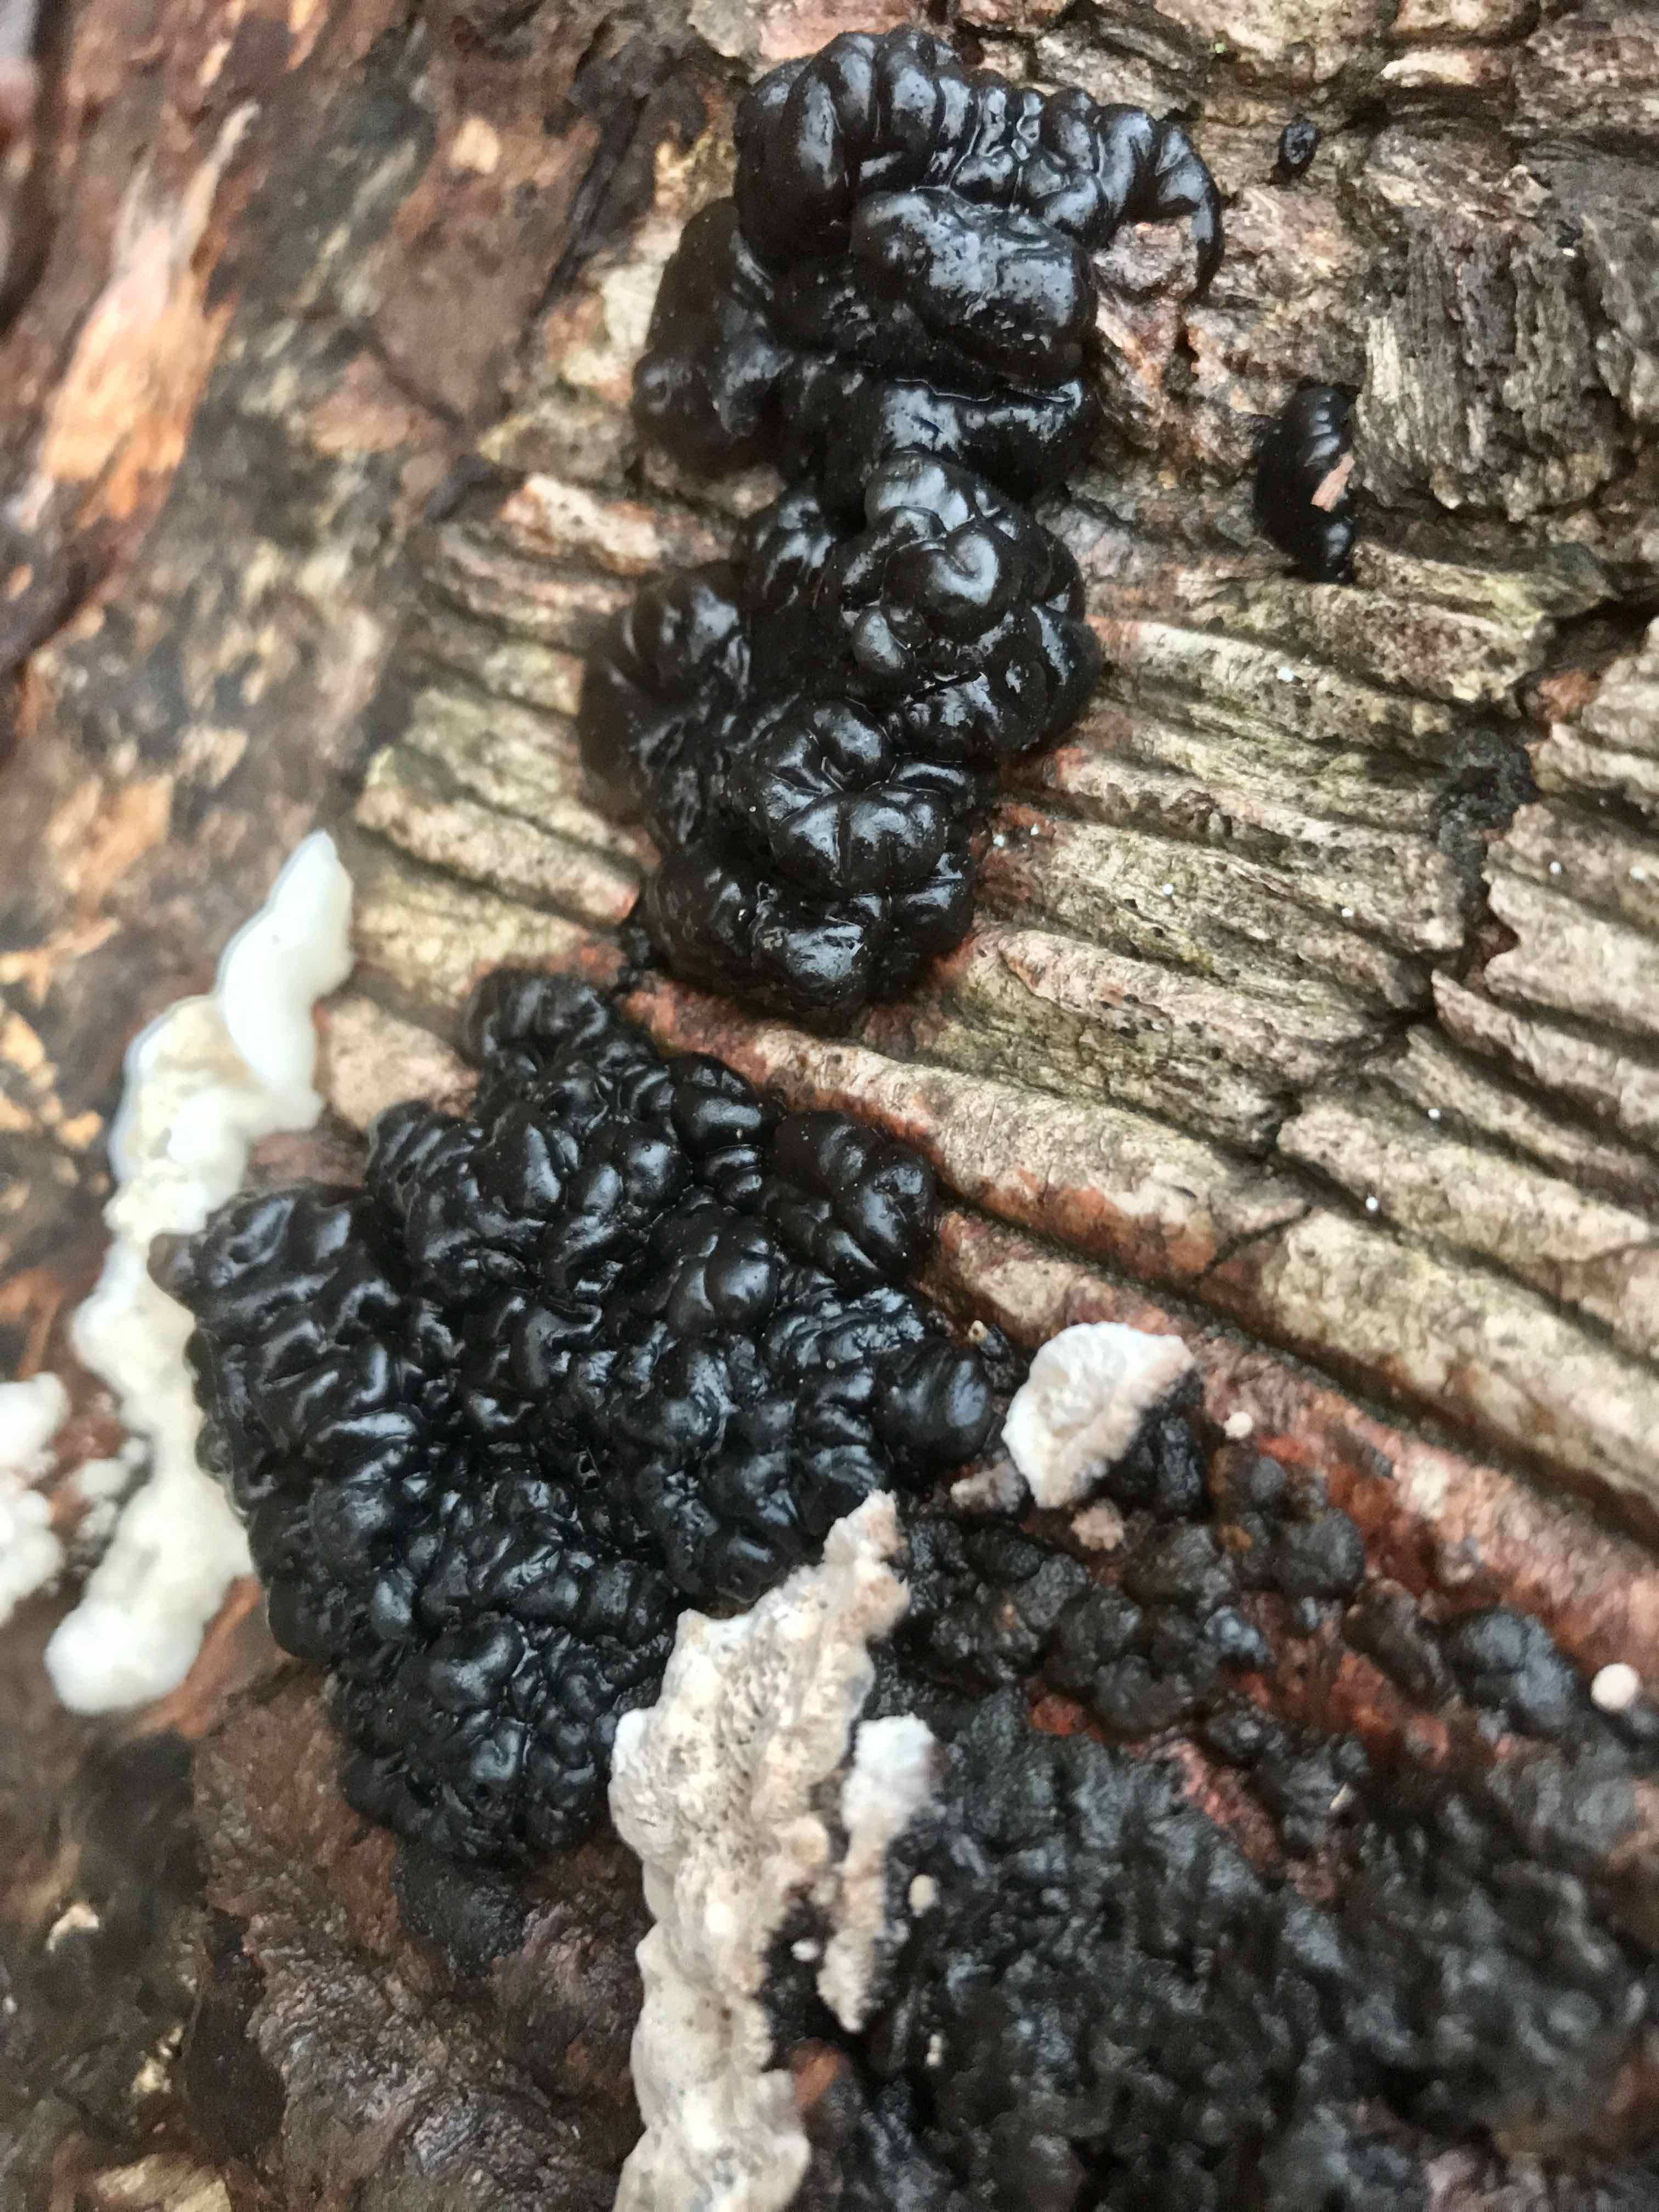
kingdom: Fungi
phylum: Basidiomycota
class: Agaricomycetes
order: Auriculariales
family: Auriculariaceae
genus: Exidia
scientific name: Exidia nigricans
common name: almindelig bævretop
